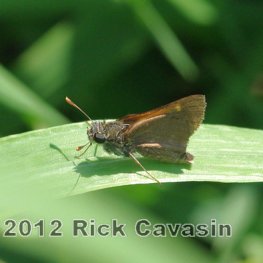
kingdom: Animalia
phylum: Arthropoda
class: Insecta
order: Lepidoptera
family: Hesperiidae
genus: Polites
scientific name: Polites themistocles
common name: Tawny-edged Skipper
